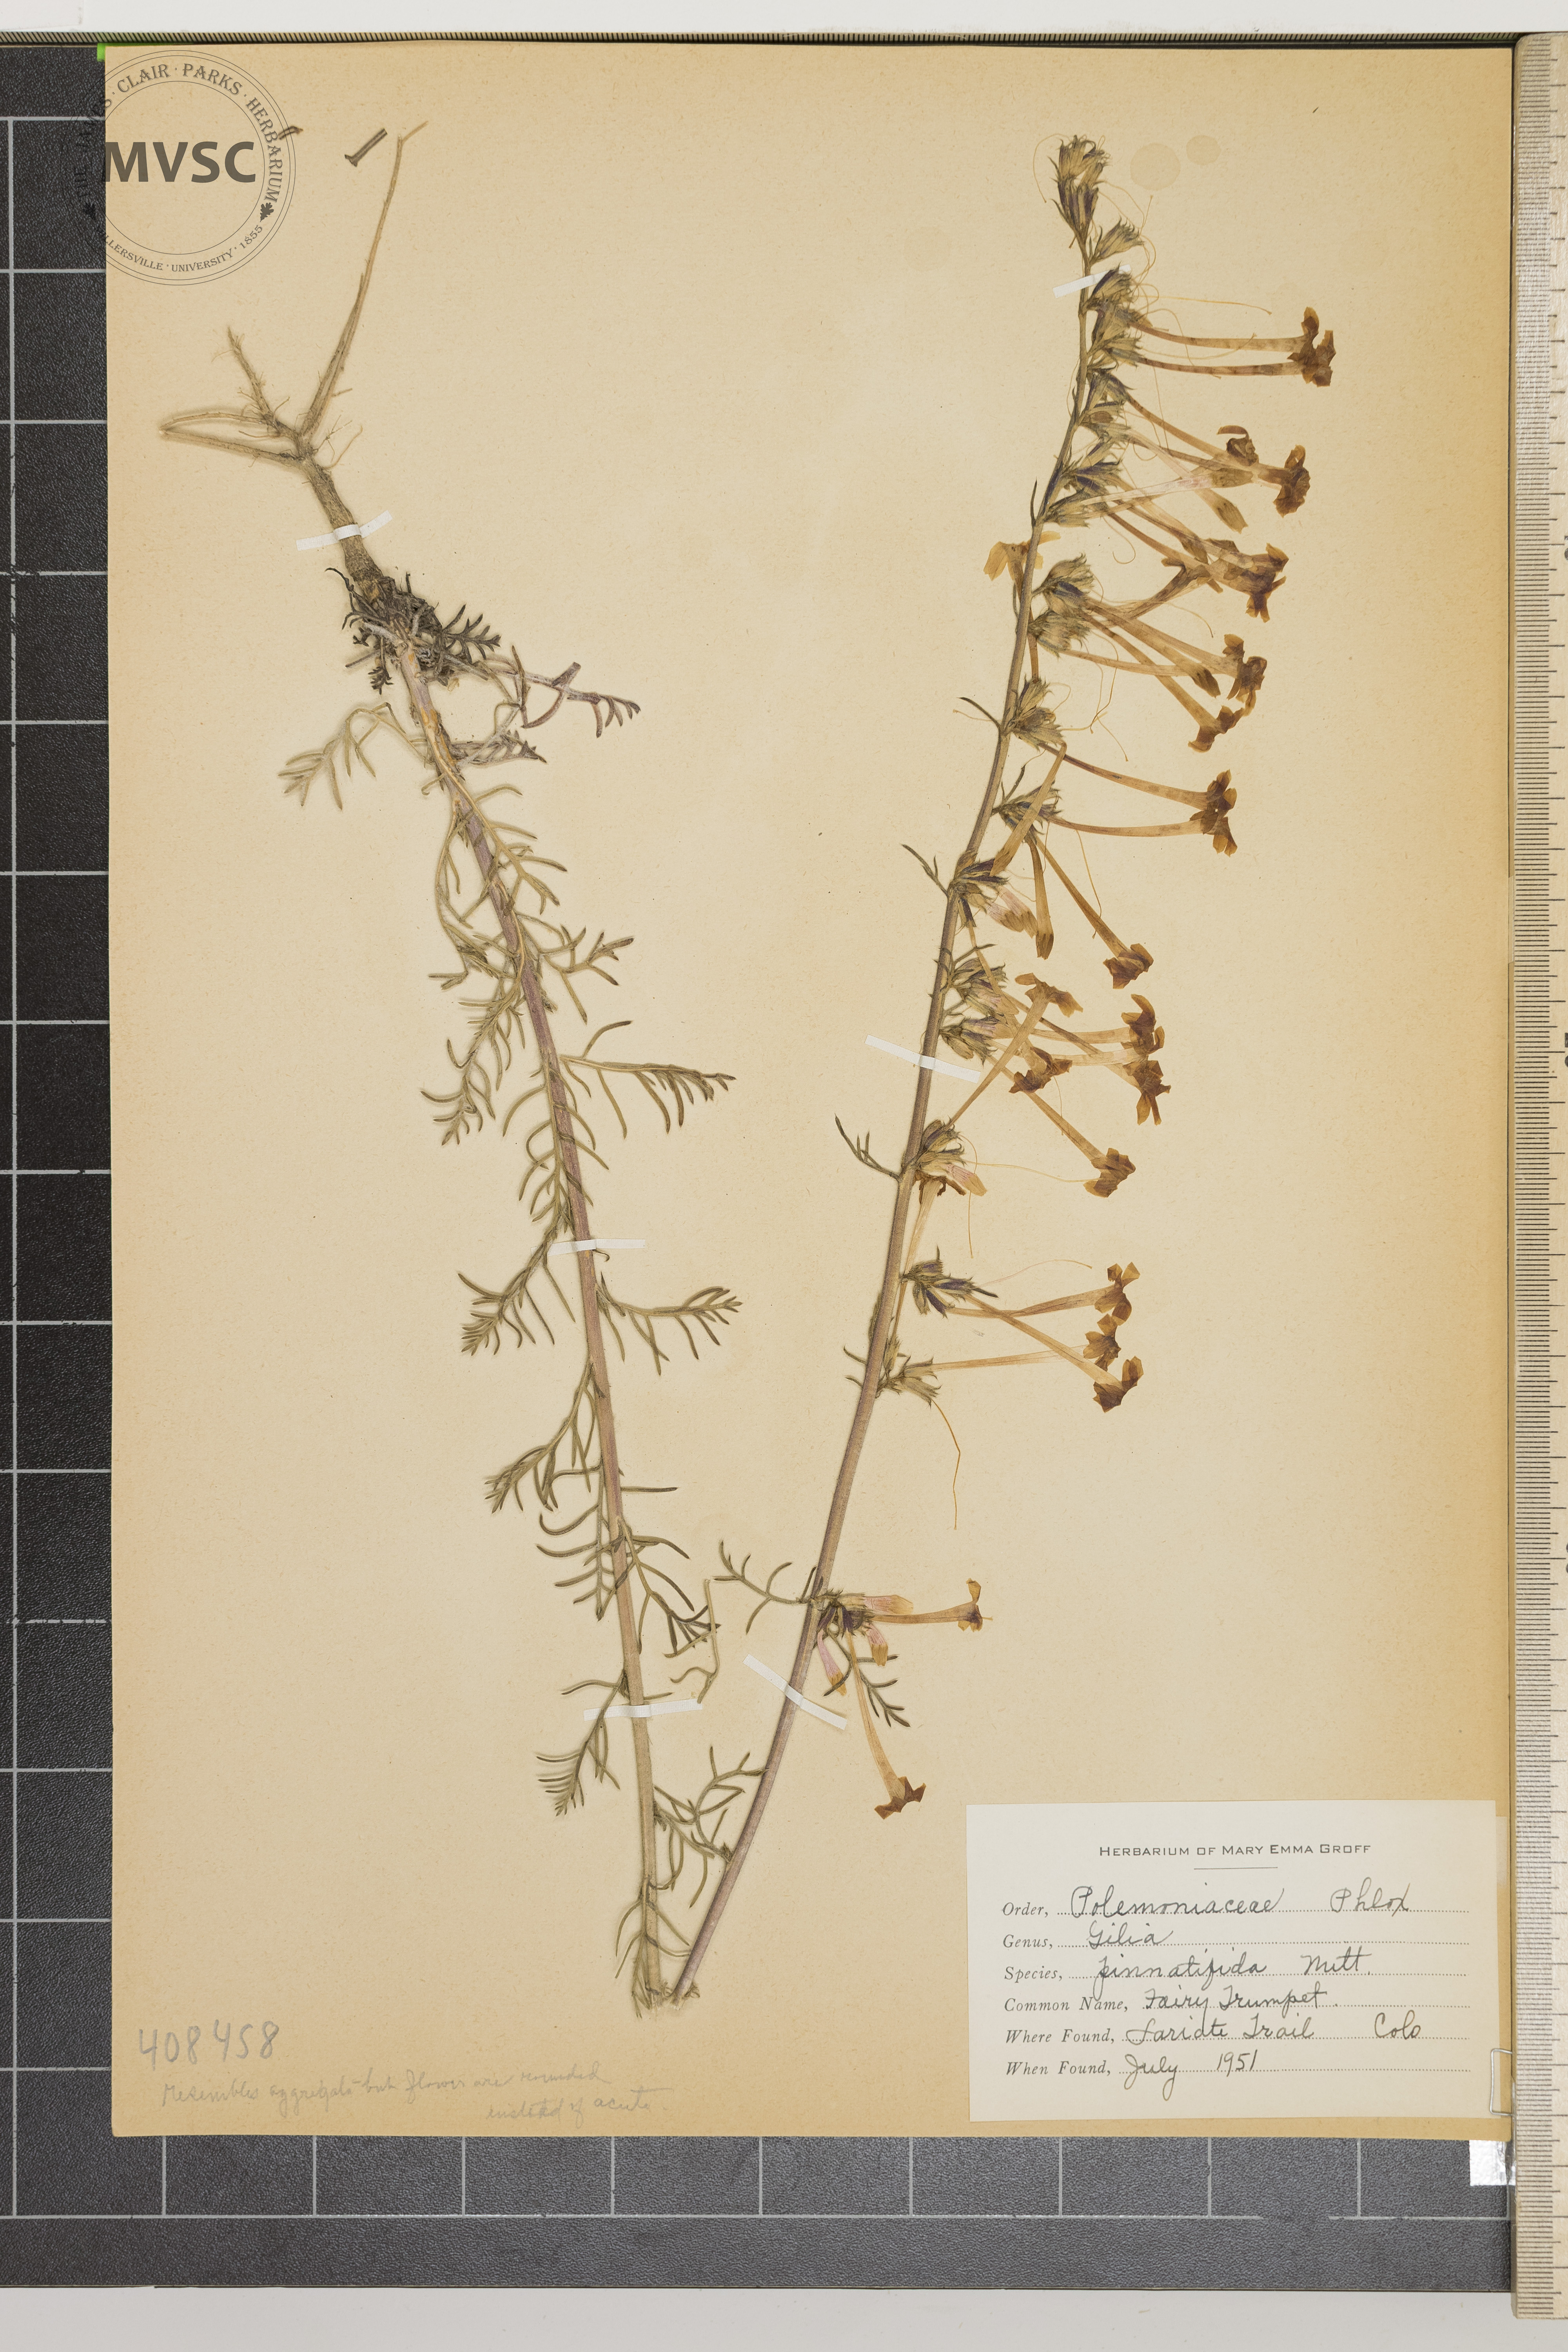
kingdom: Plantae
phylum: Tracheophyta
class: Magnoliopsida
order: Ericales
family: Polemoniaceae
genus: Gilia
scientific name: Gilia pinnatifida
